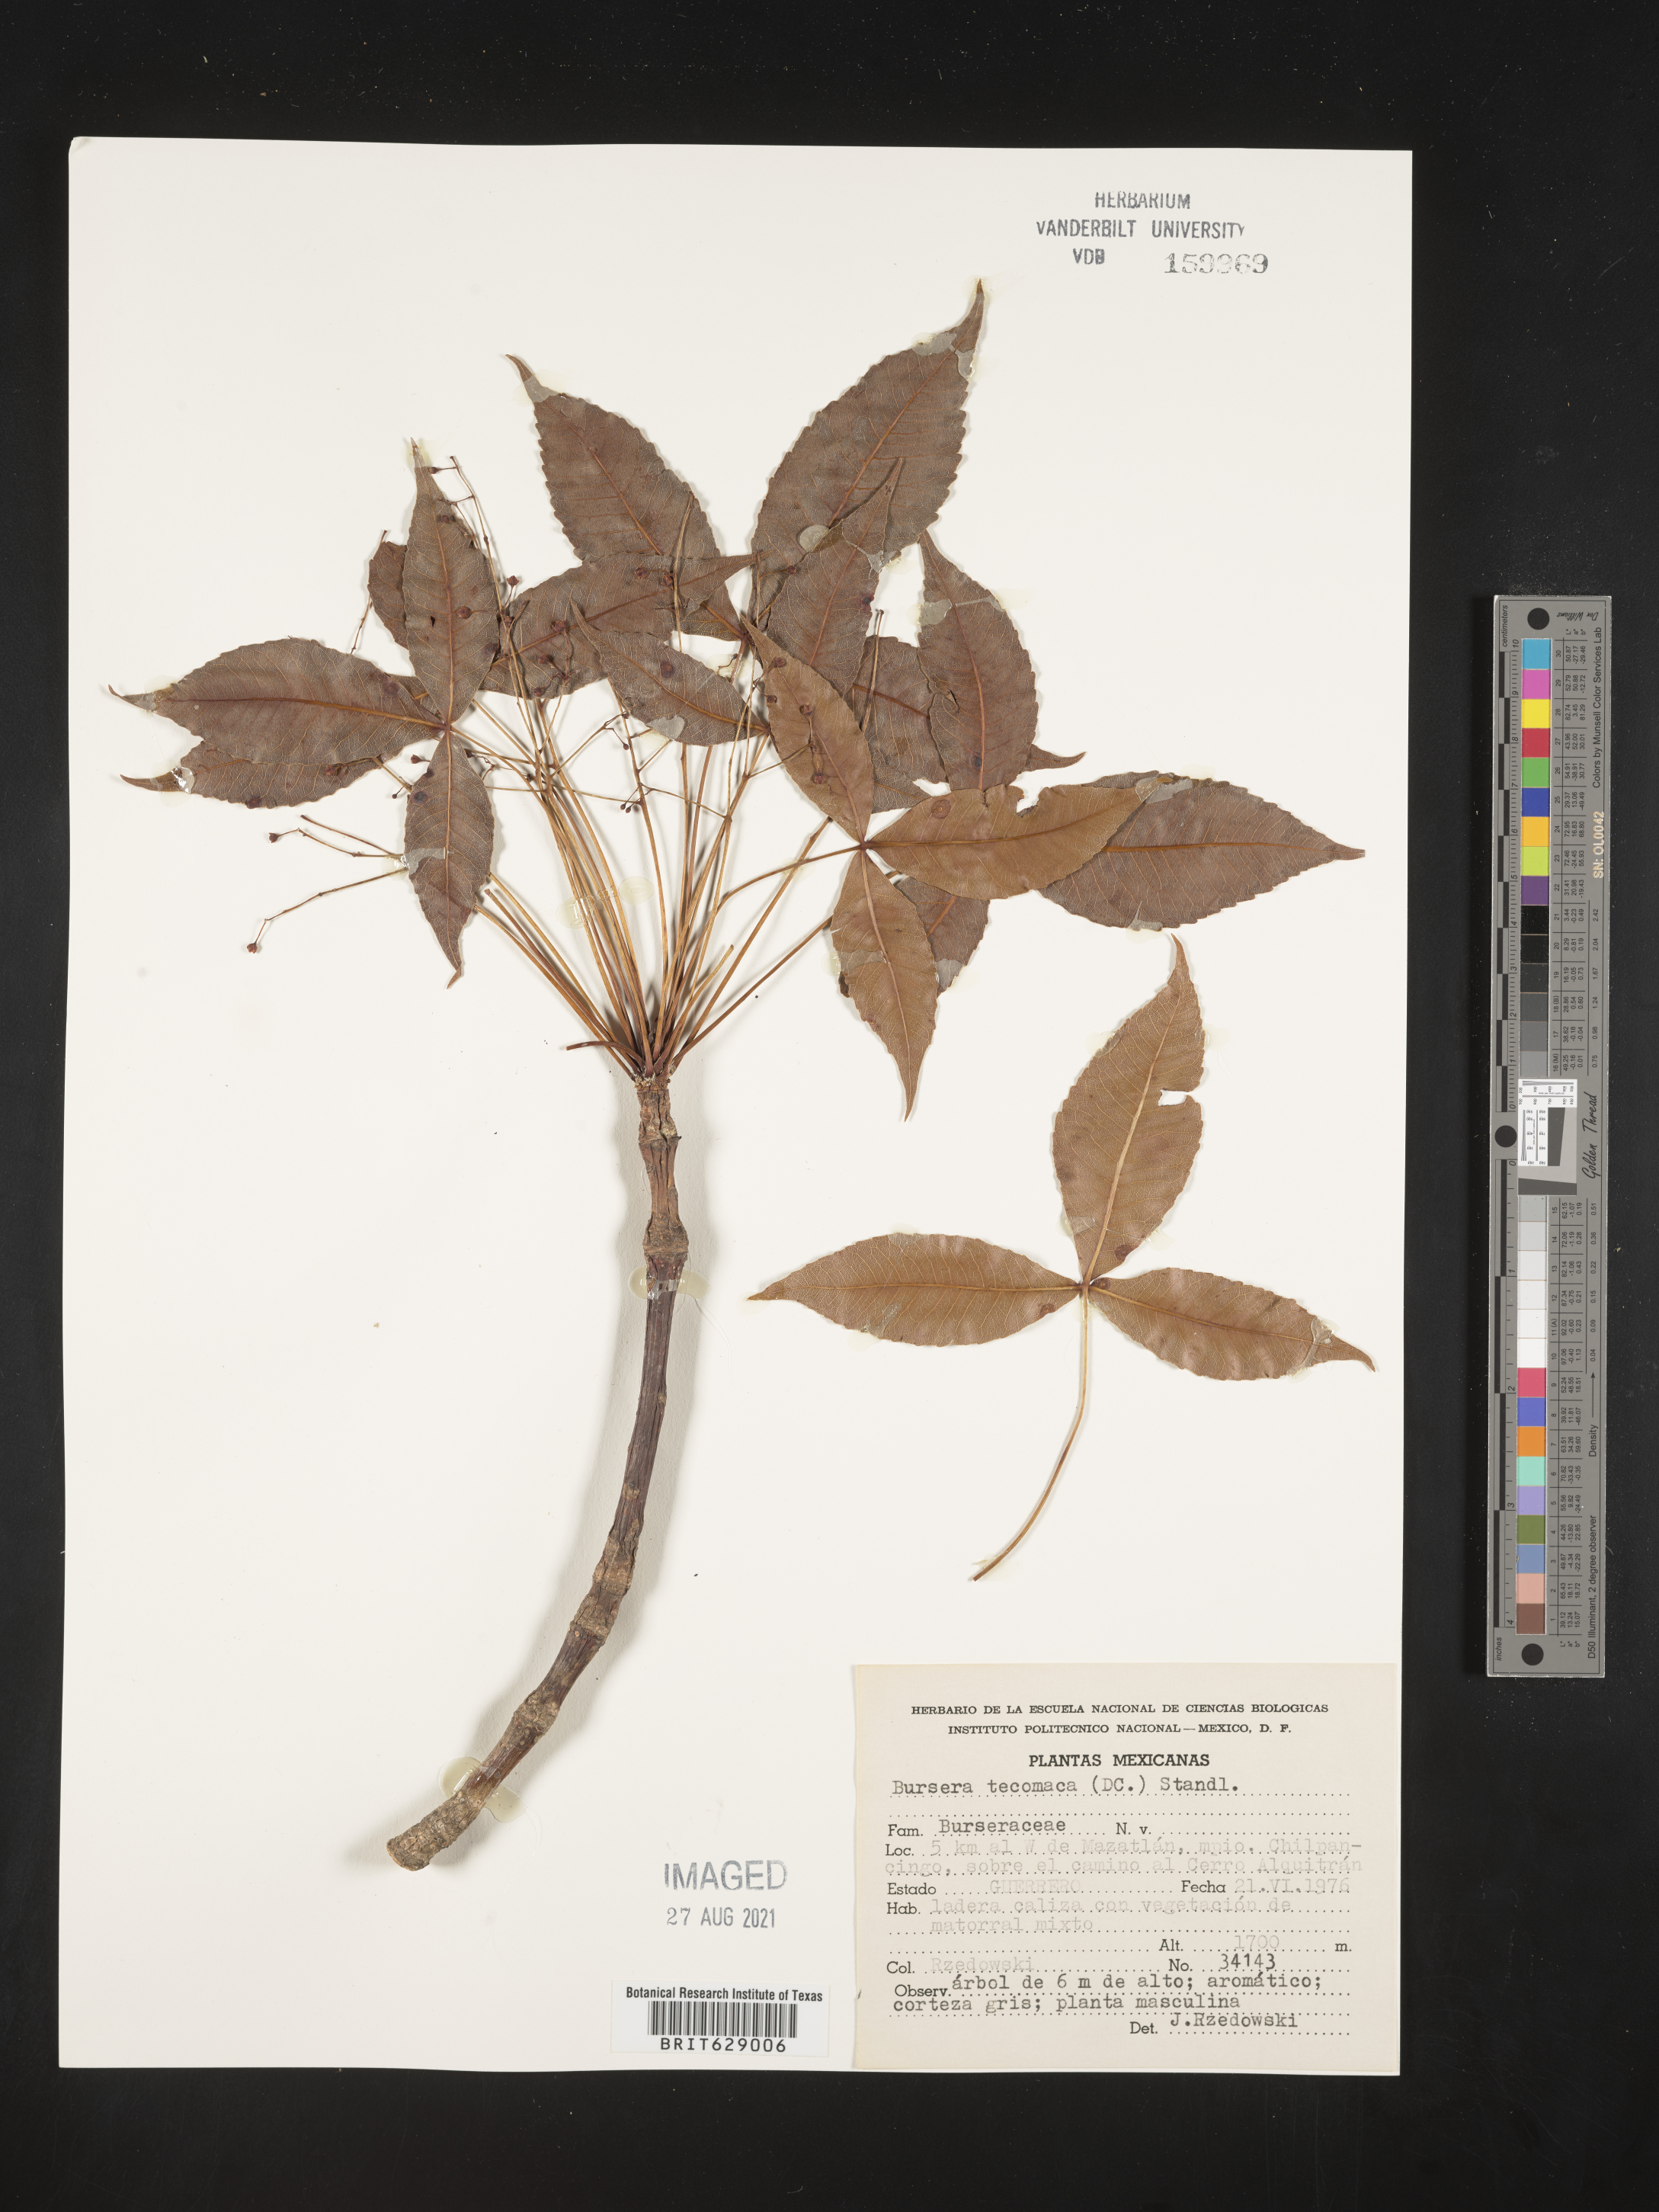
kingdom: Plantae
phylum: Tracheophyta
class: Magnoliopsida
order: Sapindales
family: Burseraceae
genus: Bursera
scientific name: Bursera
